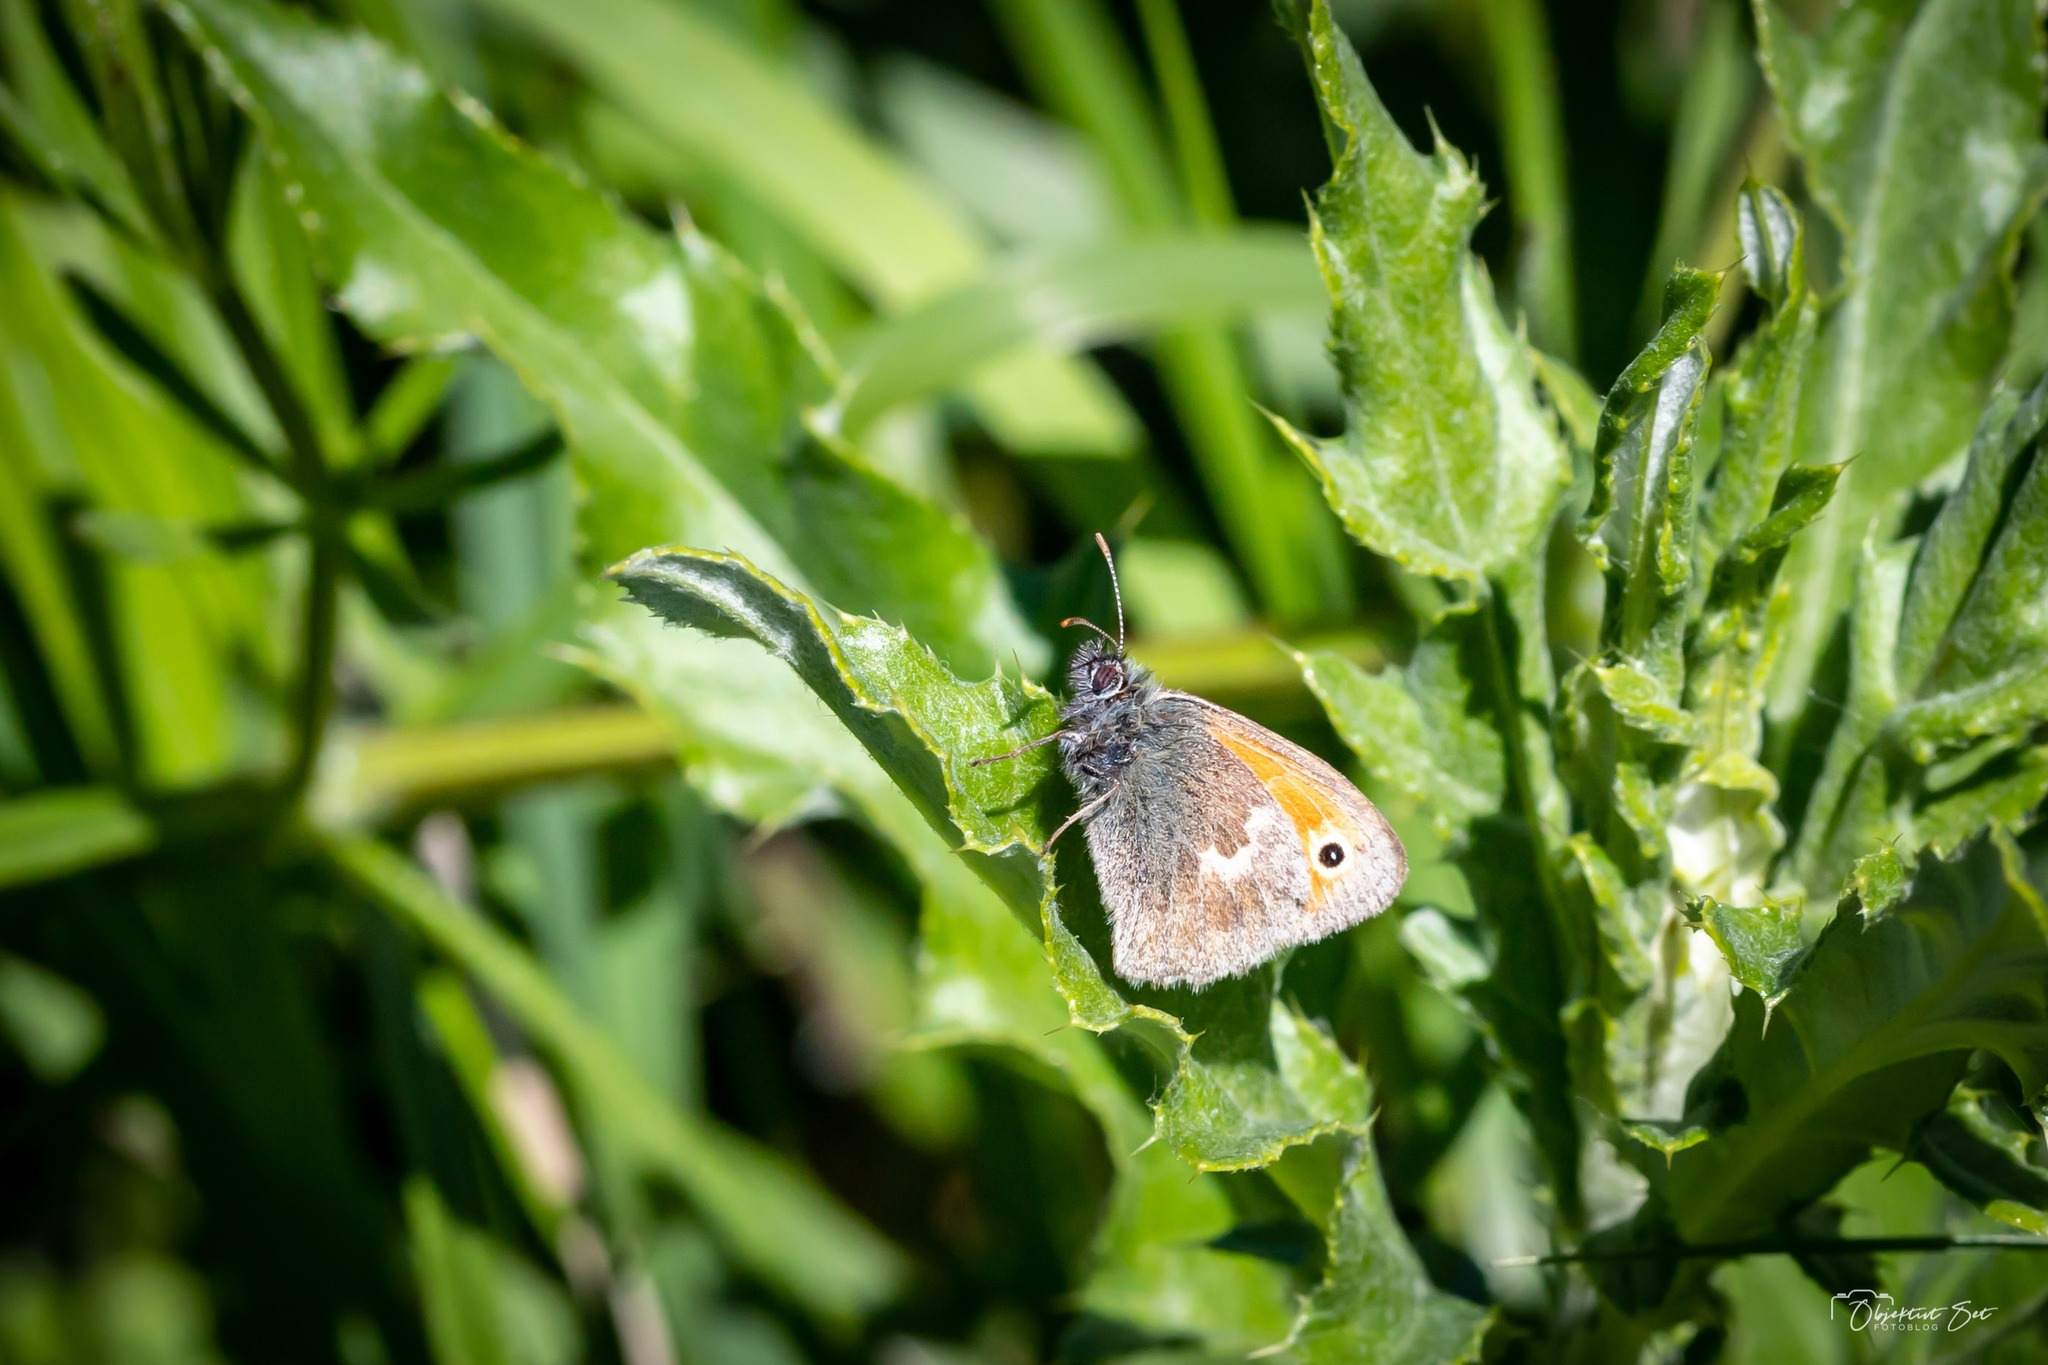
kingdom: Animalia
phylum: Arthropoda
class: Insecta
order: Lepidoptera
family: Nymphalidae
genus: Coenonympha
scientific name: Coenonympha pamphilus
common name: Okkergul randøje
